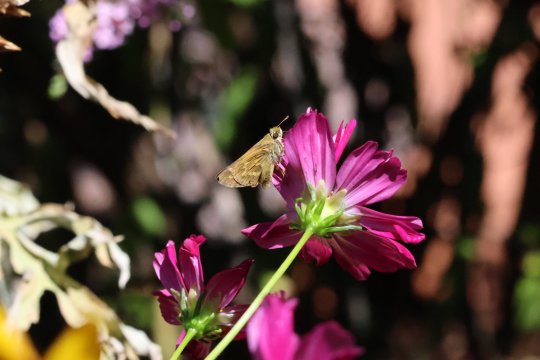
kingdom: Animalia
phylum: Arthropoda
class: Insecta
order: Lepidoptera
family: Hesperiidae
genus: Atalopedes
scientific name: Atalopedes campestris
